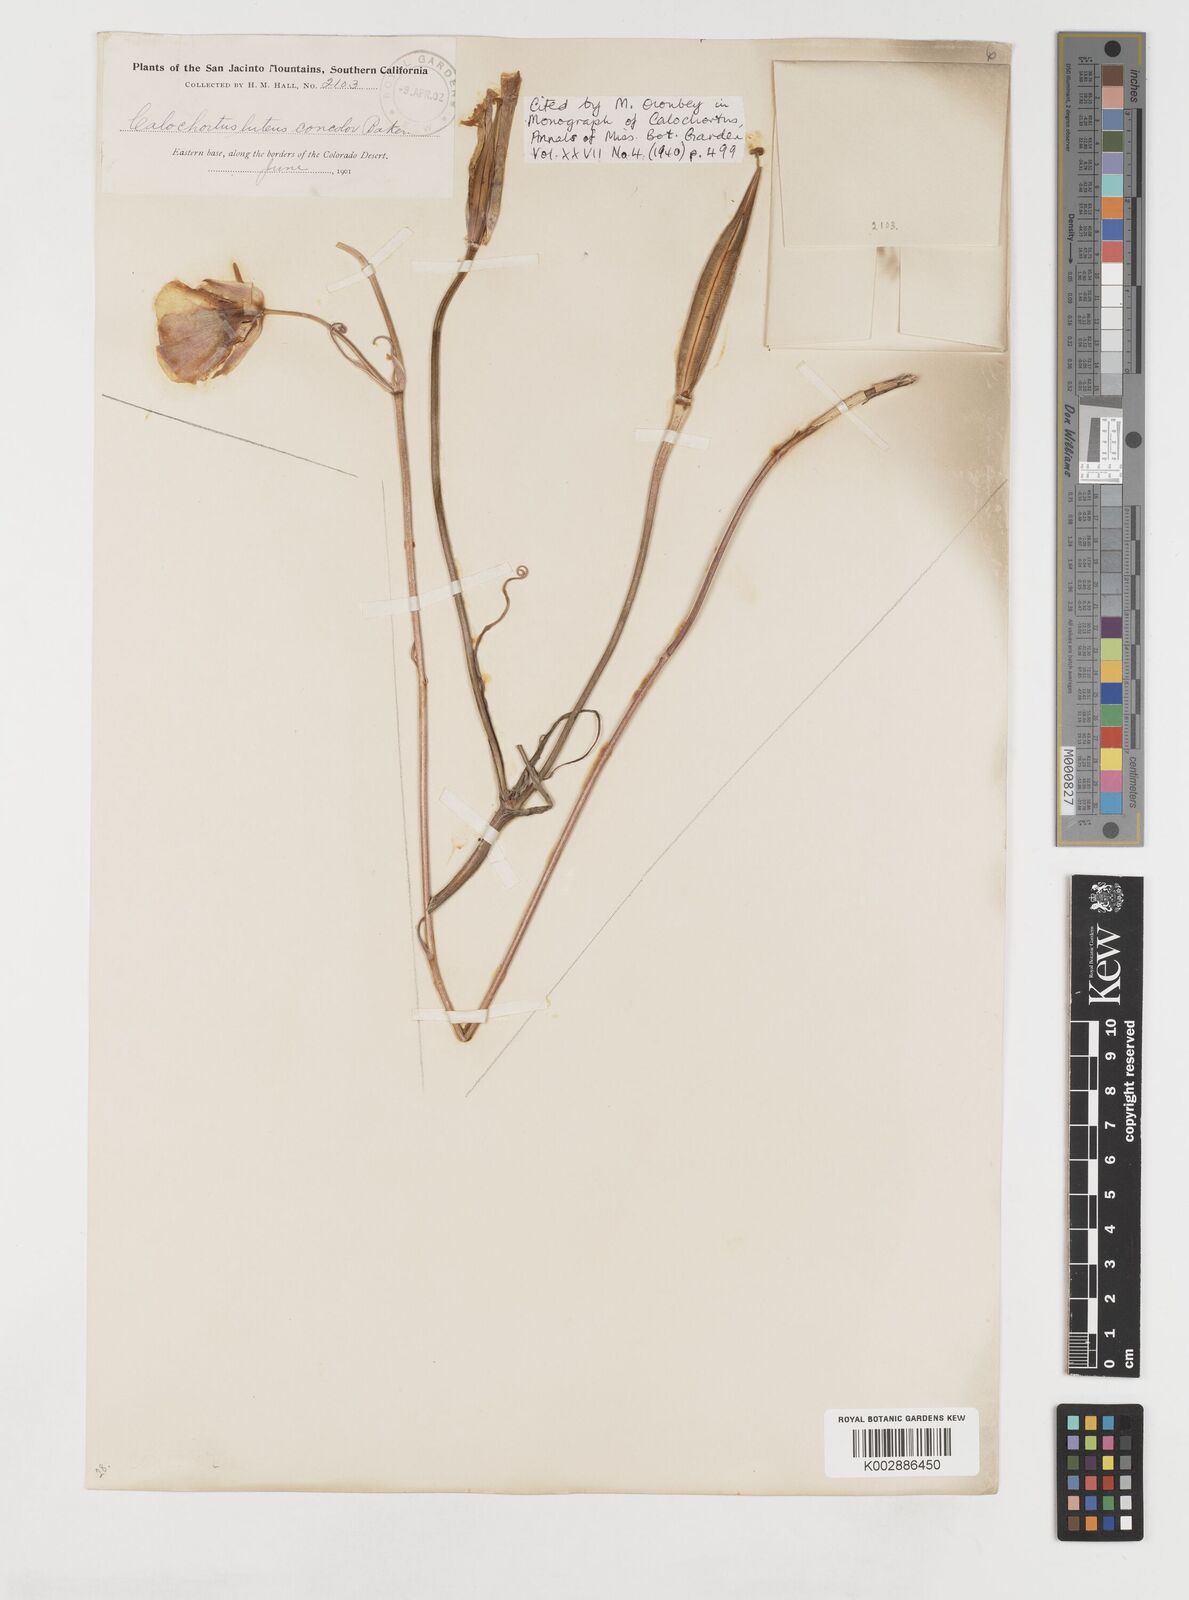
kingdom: Plantae
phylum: Tracheophyta
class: Liliopsida
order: Liliales
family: Liliaceae
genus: Calochortus
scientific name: Calochortus concolor
